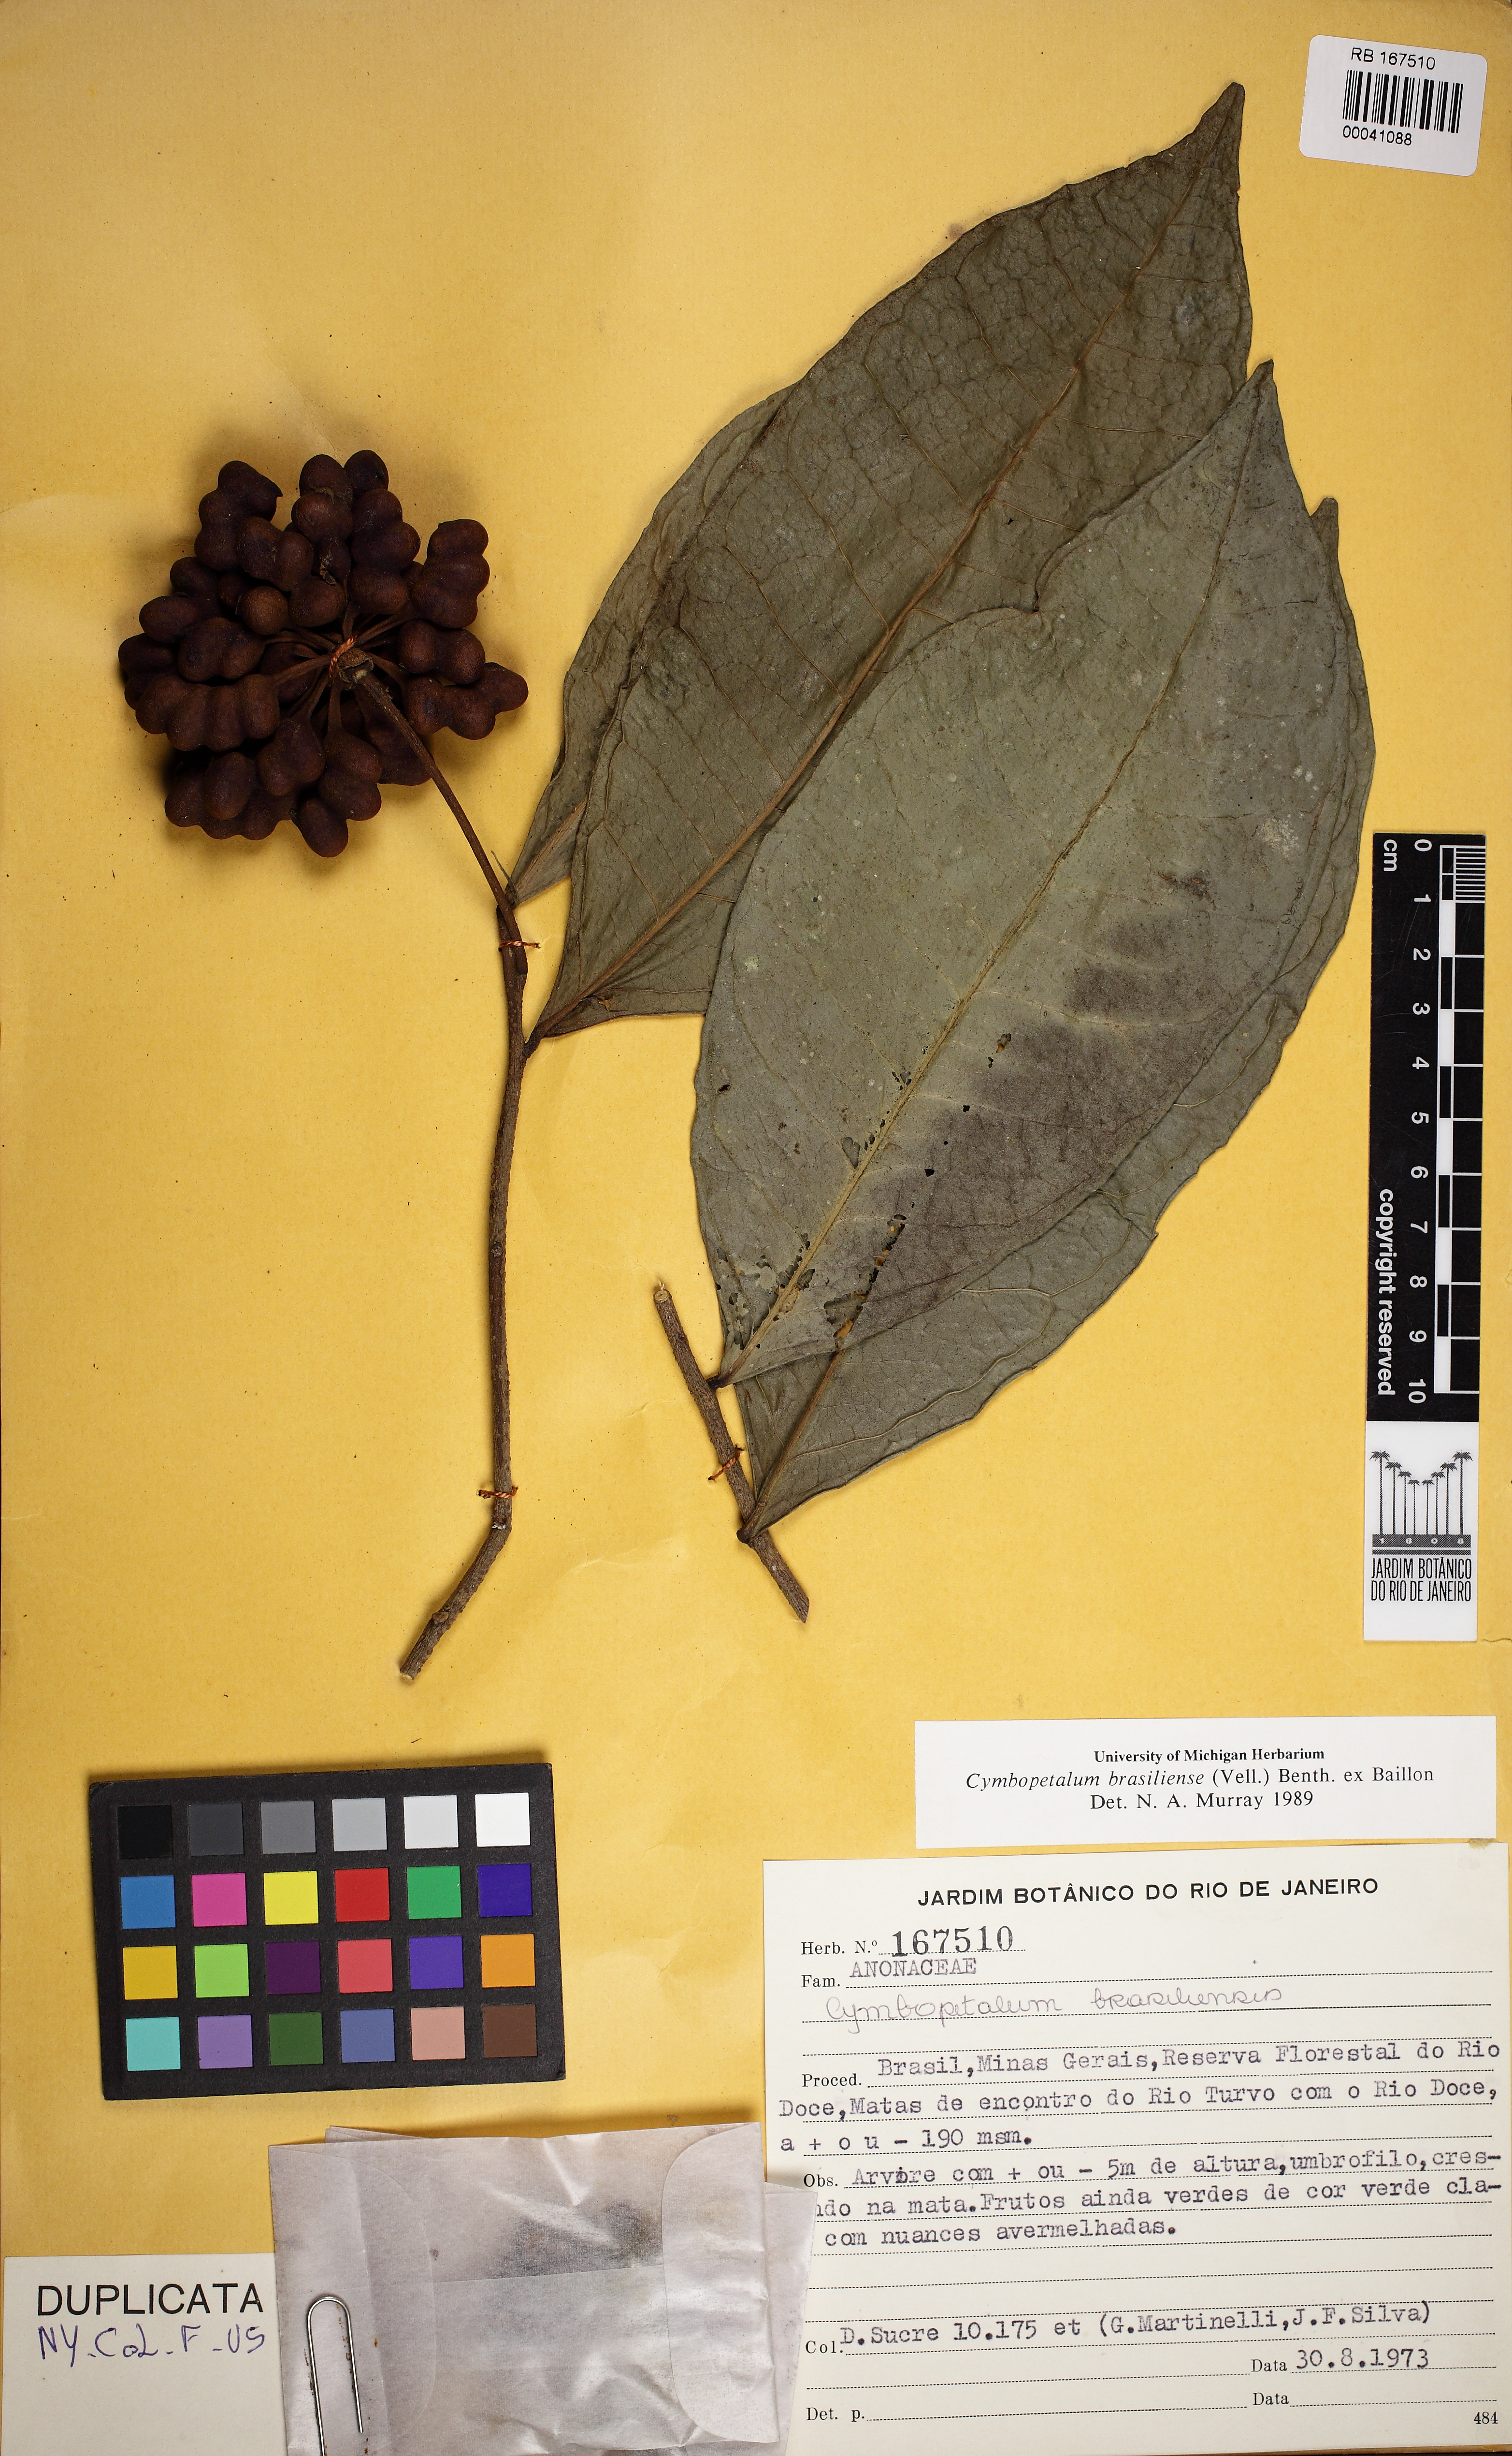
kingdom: Plantae
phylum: Tracheophyta
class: Magnoliopsida
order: Magnoliales
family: Annonaceae
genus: Cymbopetalum
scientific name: Cymbopetalum brasiliense
